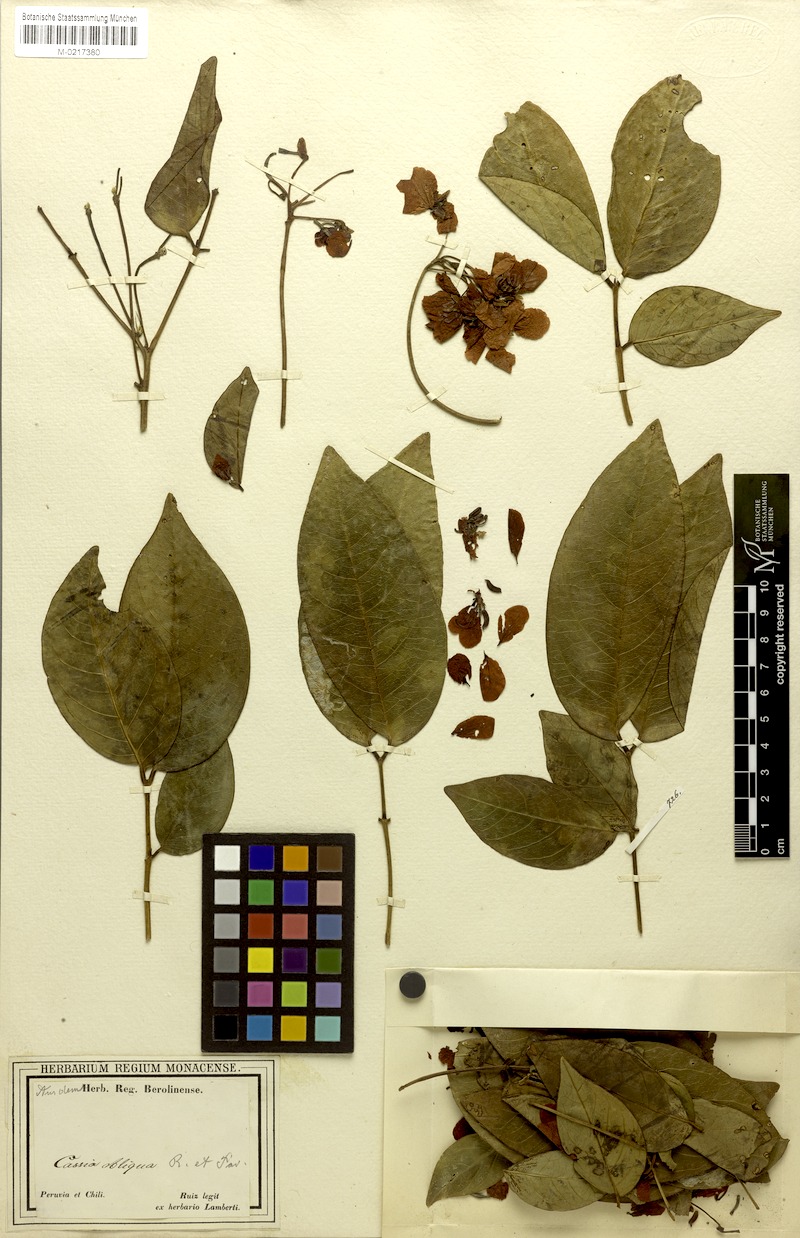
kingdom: Plantae
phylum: Tracheophyta
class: Magnoliopsida
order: Fabales
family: Fabaceae
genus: Senna
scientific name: Senna obliqua
